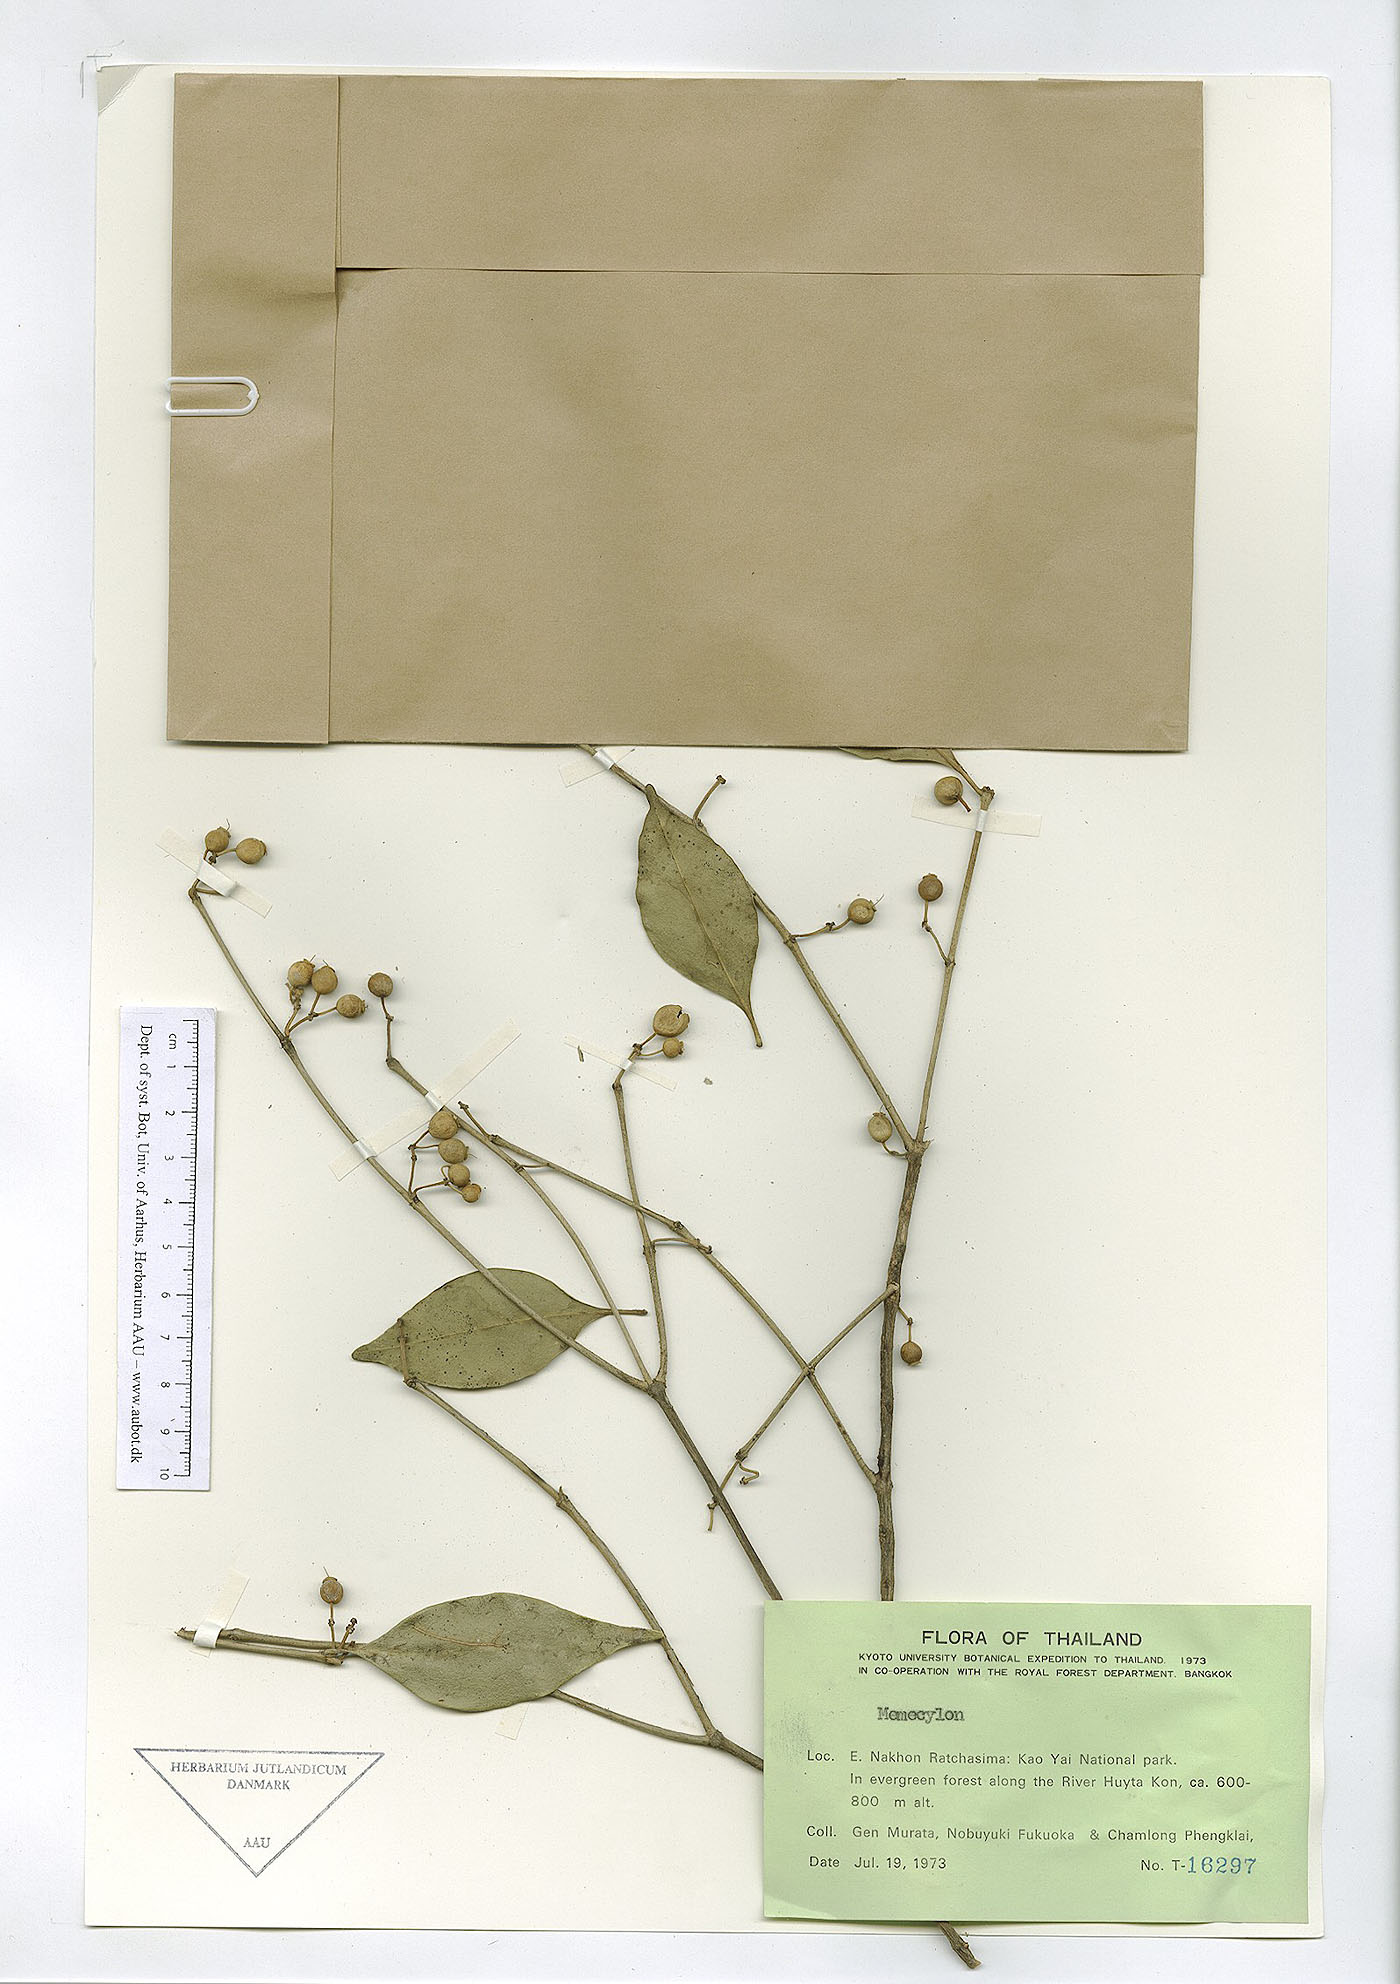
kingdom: Plantae
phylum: Tracheophyta
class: Magnoliopsida
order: Myrtales
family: Melastomataceae
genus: Memecylon
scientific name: Memecylon lanceolatum
